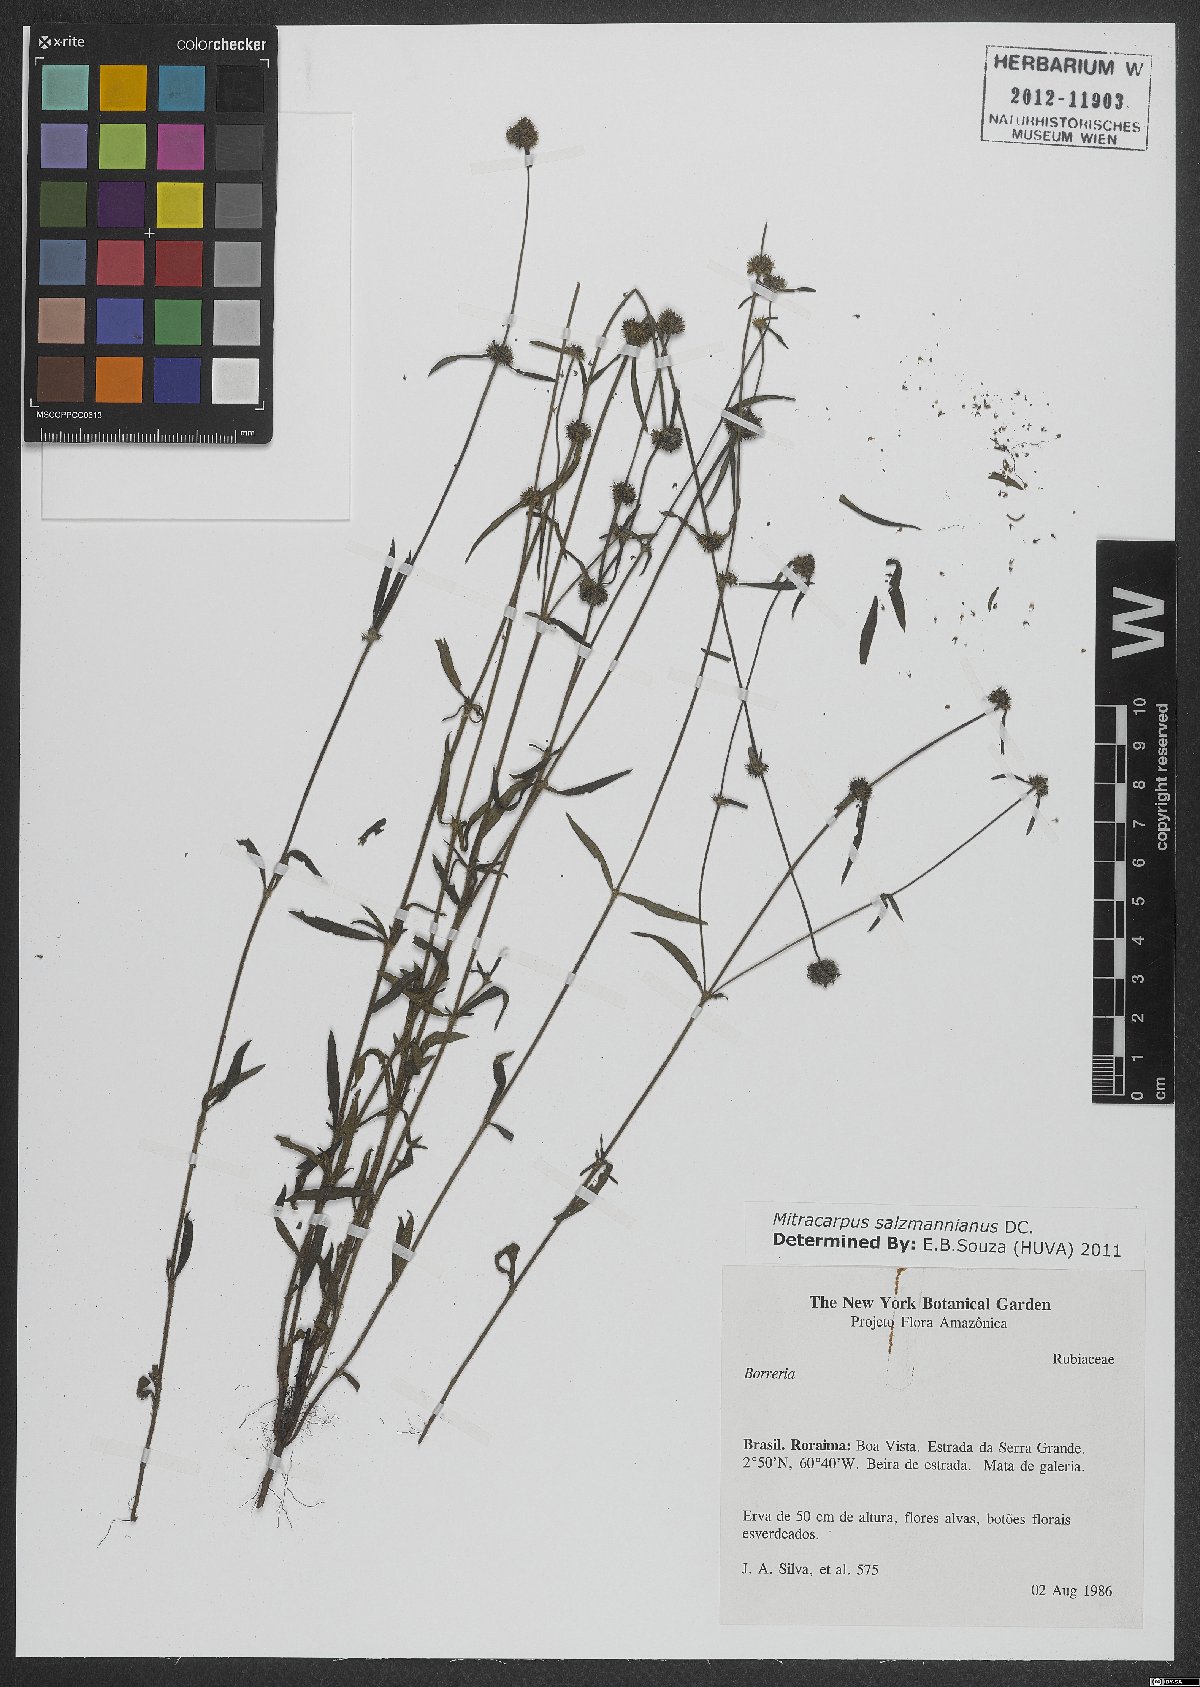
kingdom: Plantae
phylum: Tracheophyta
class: Magnoliopsida
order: Gentianales
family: Rubiaceae
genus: Mitracarpus
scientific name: Mitracarpus salzmannianus
